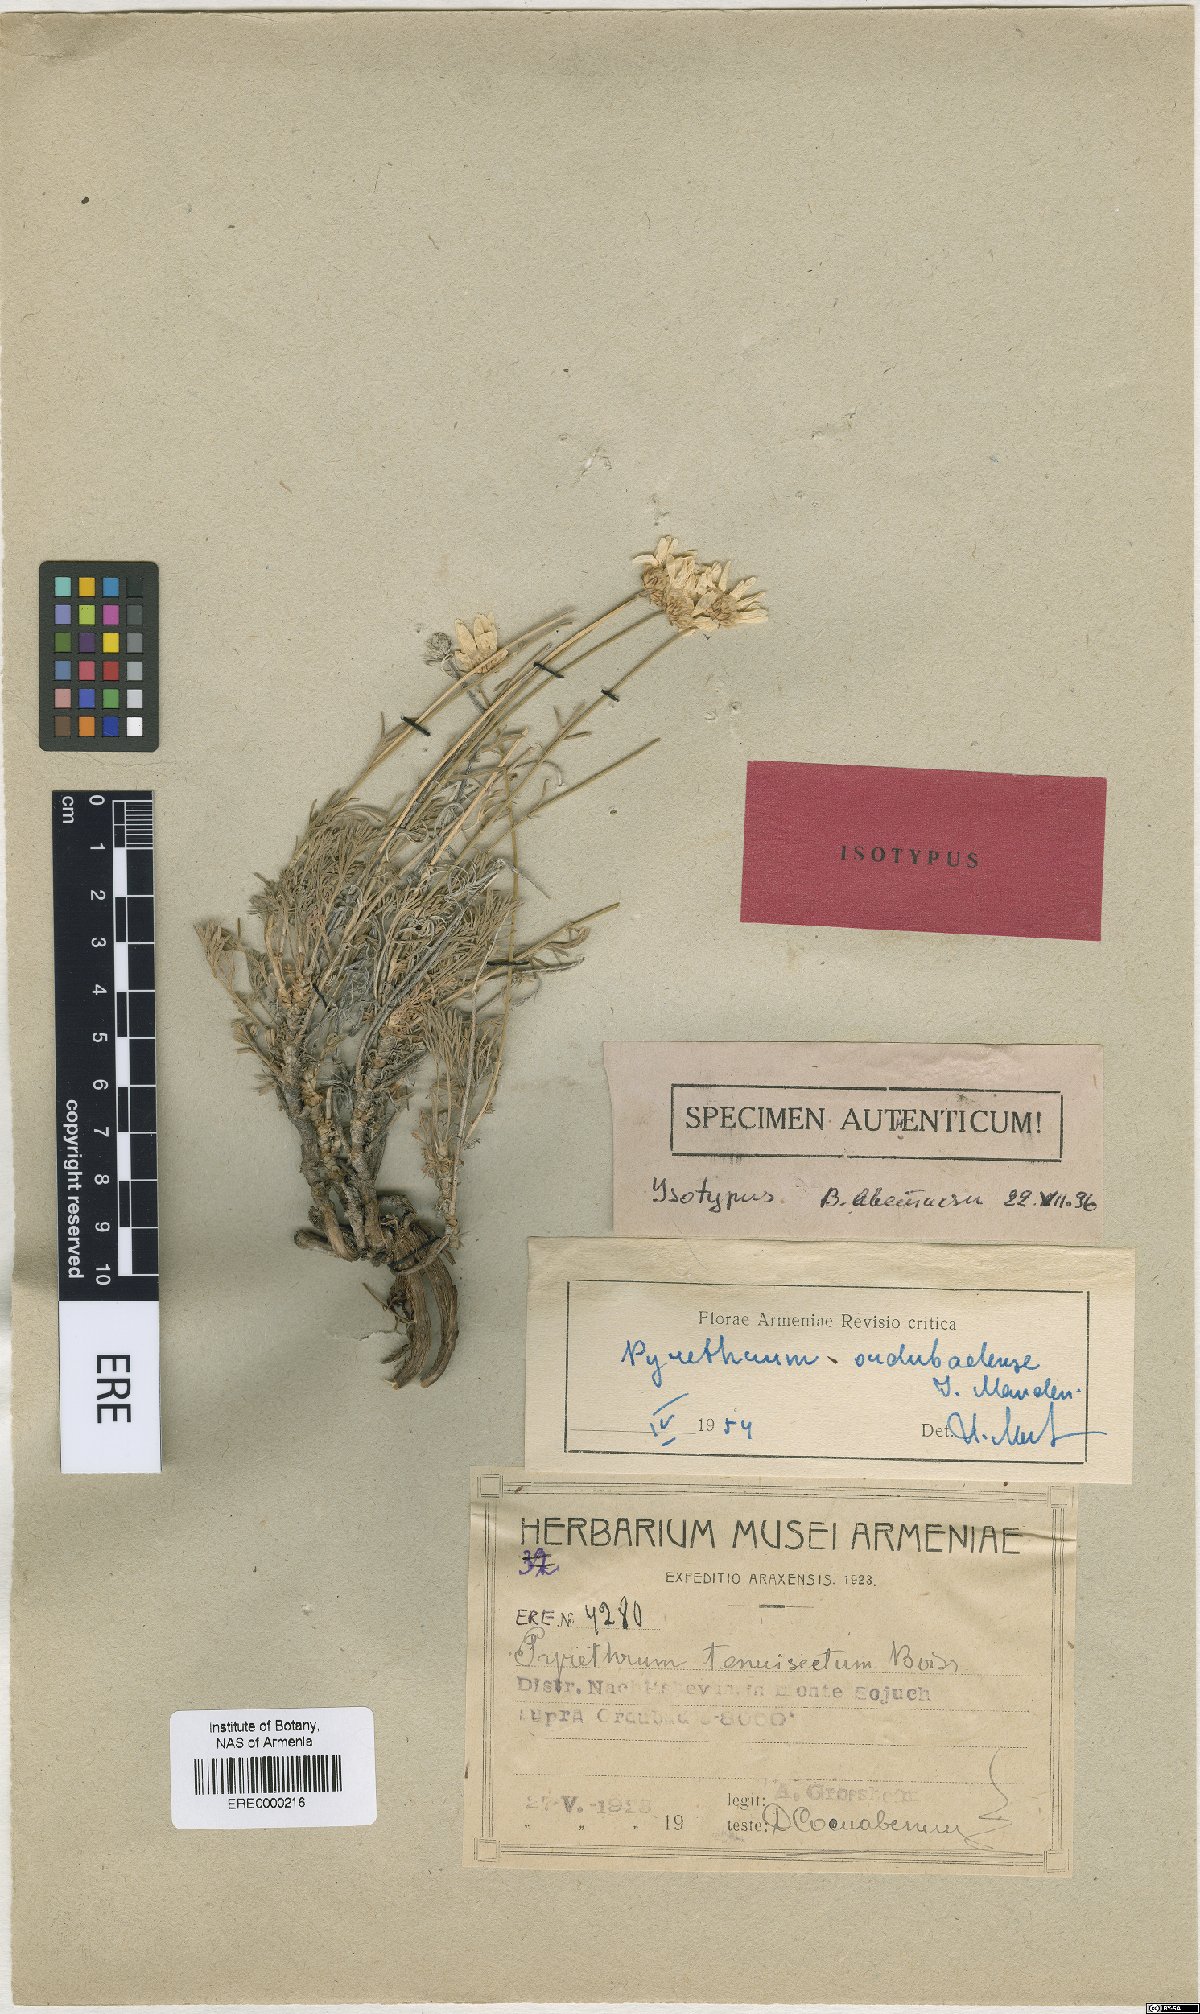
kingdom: Plantae
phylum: Tracheophyta
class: Magnoliopsida
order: Asterales
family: Asteraceae
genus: Tanacetum
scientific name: Tanacetum kotschyi
